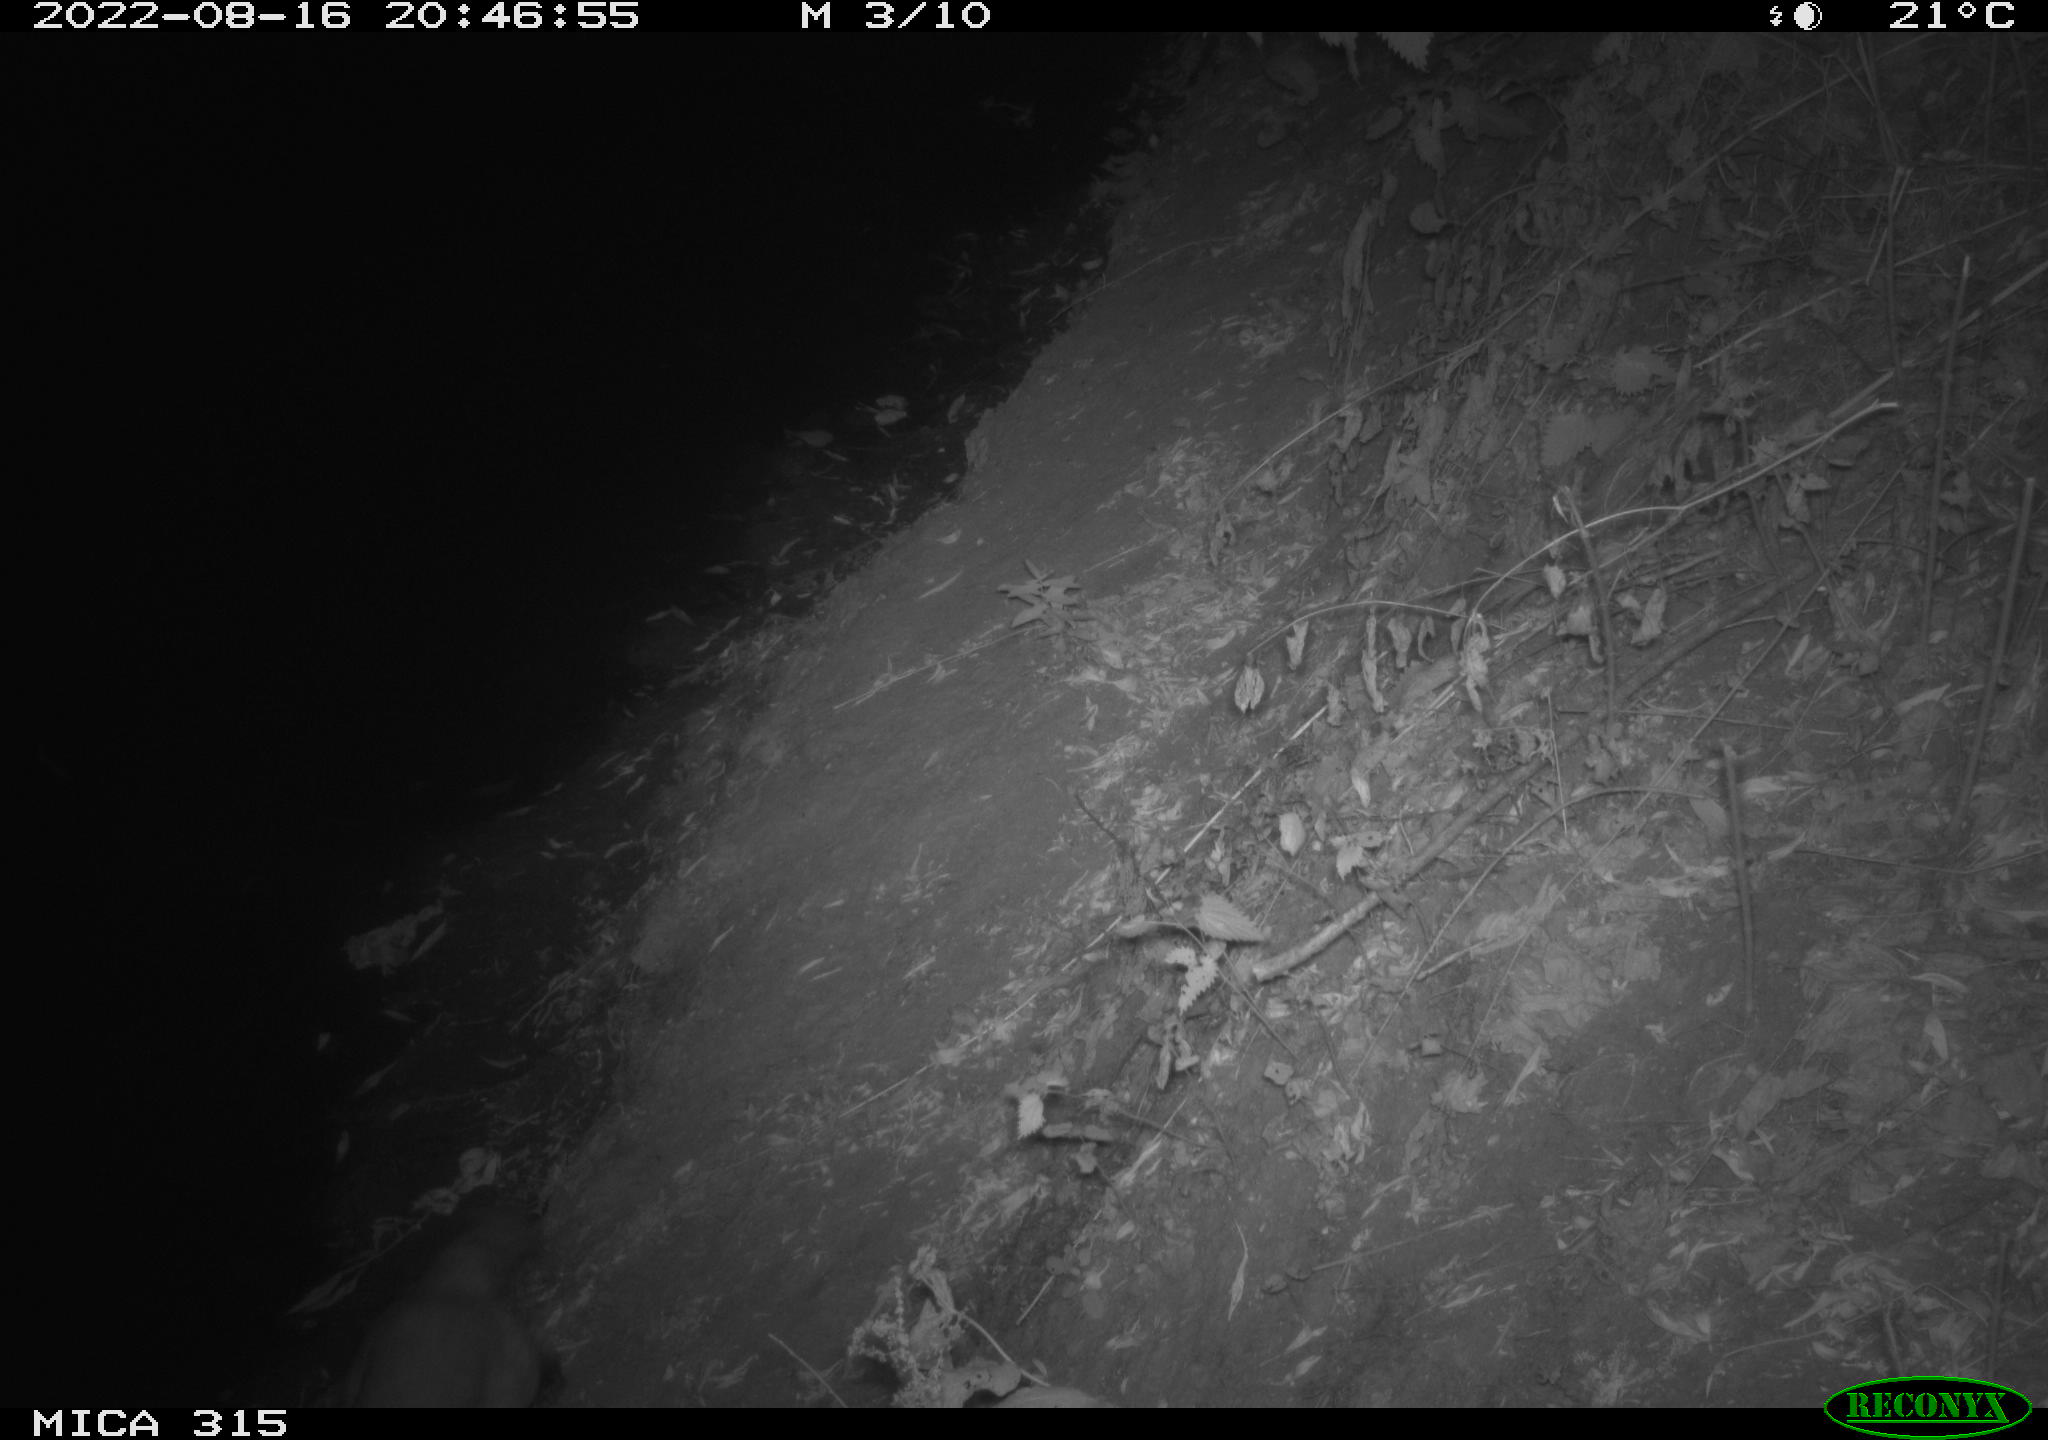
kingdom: Animalia
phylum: Chordata
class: Mammalia
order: Carnivora
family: Canidae
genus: Vulpes
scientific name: Vulpes vulpes
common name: Red fox
